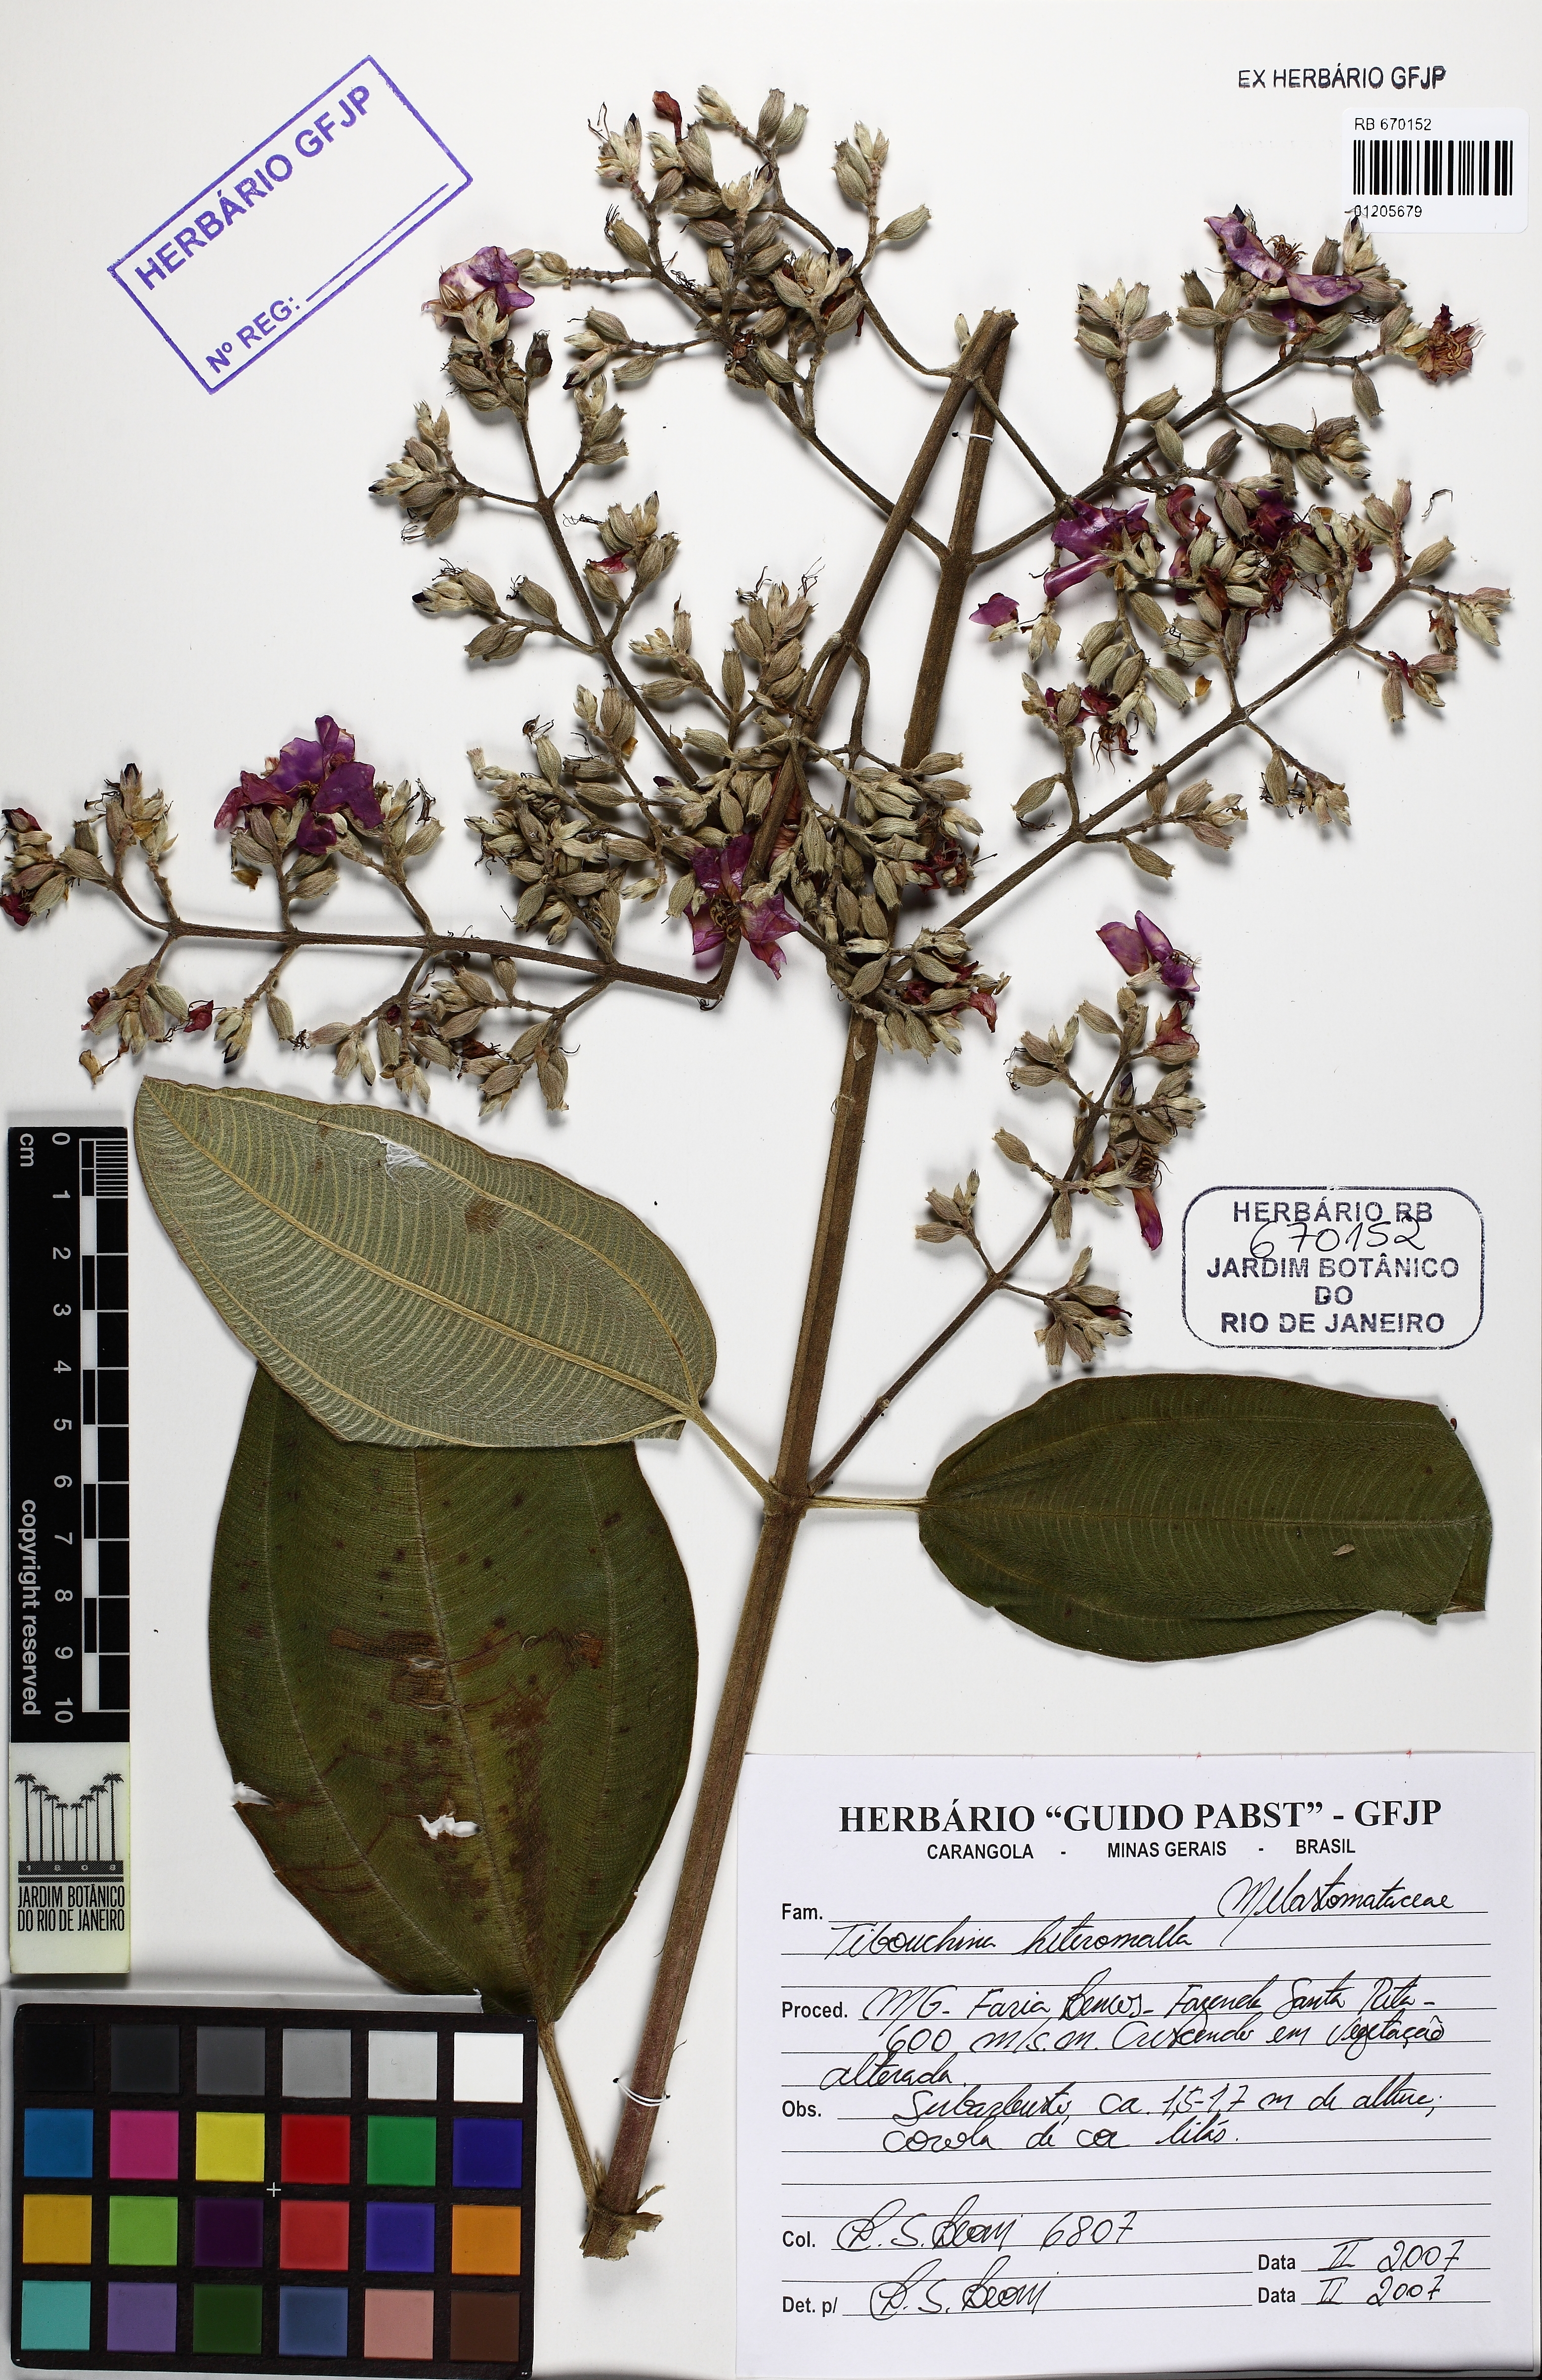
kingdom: Plantae
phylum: Tracheophyta
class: Magnoliopsida
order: Myrtales
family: Melastomataceae
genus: Pleroma
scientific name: Pleroma heteromallum
